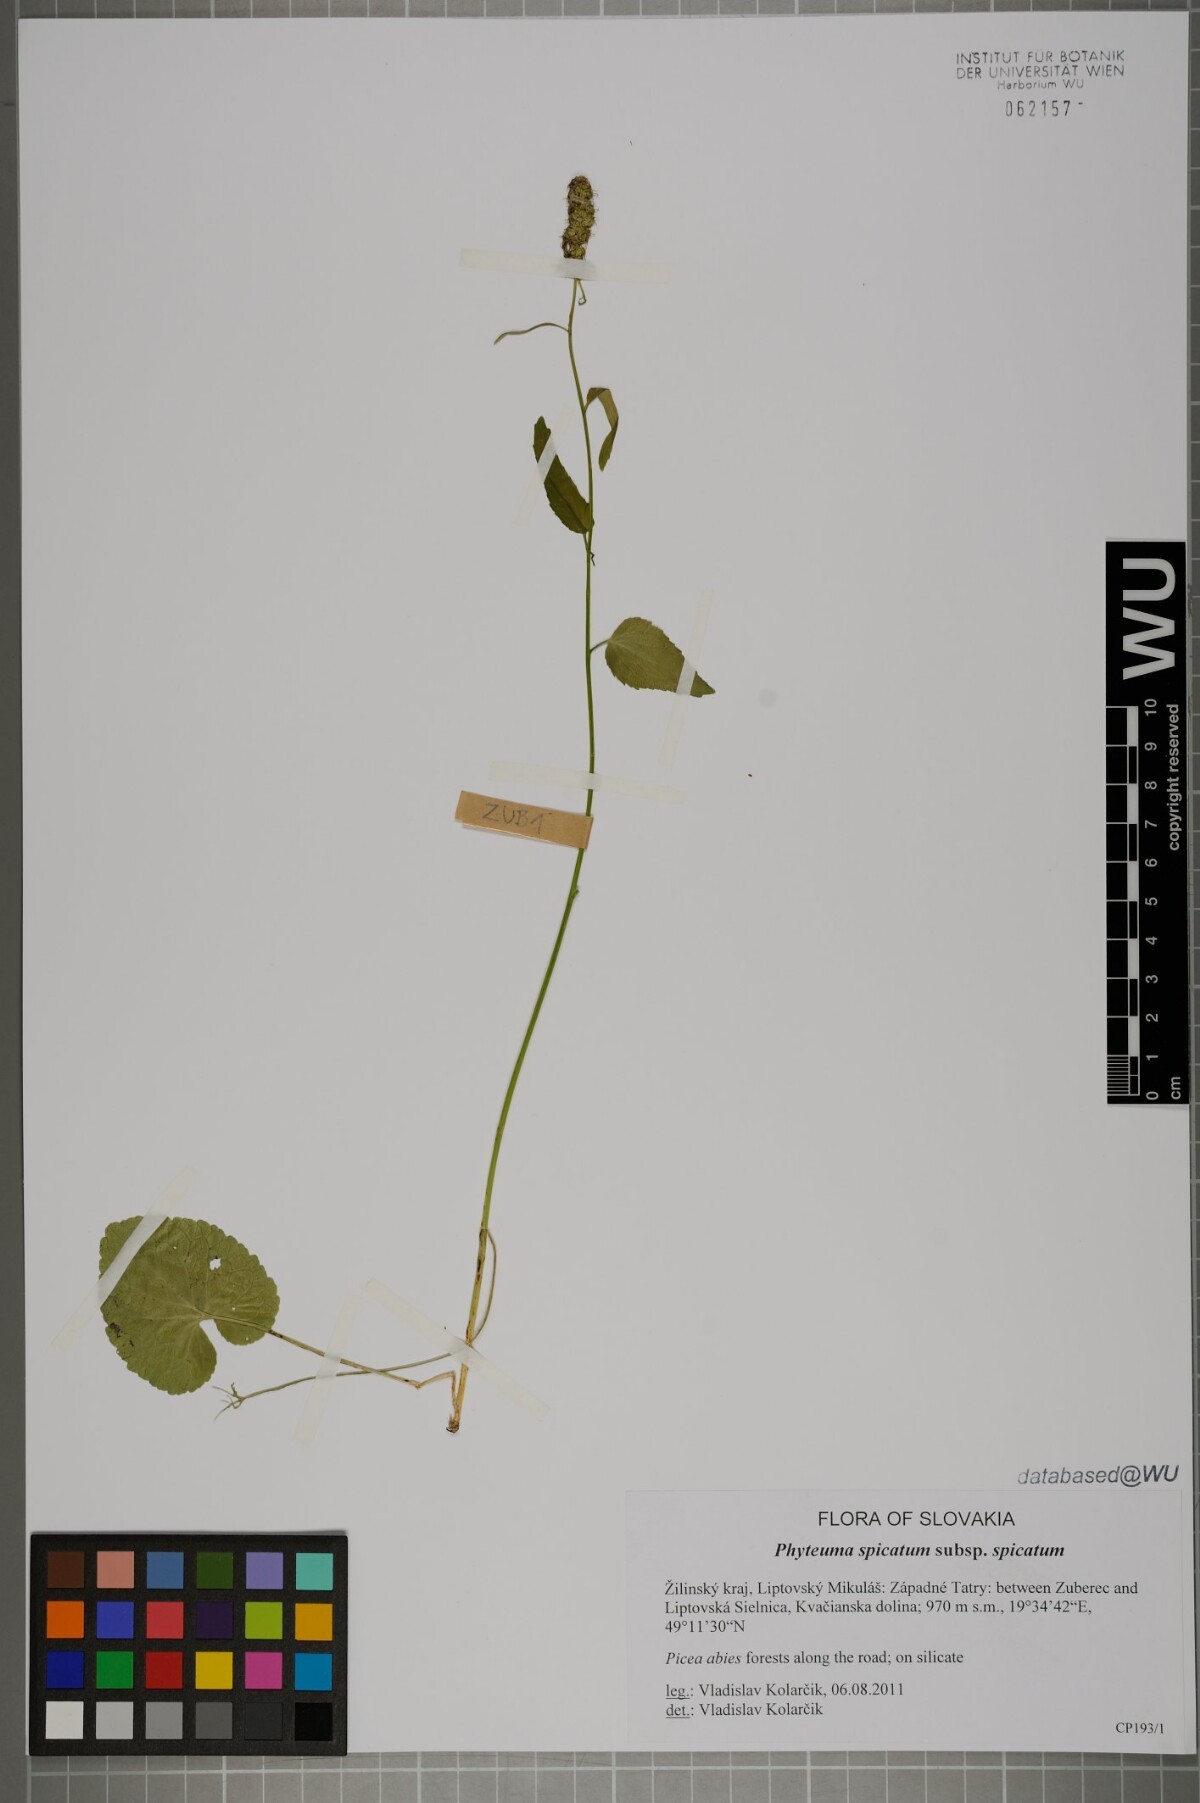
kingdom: Plantae
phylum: Tracheophyta
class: Magnoliopsida
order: Asterales
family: Campanulaceae
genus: Phyteuma
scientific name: Phyteuma spicatum
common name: Spiked rampion
